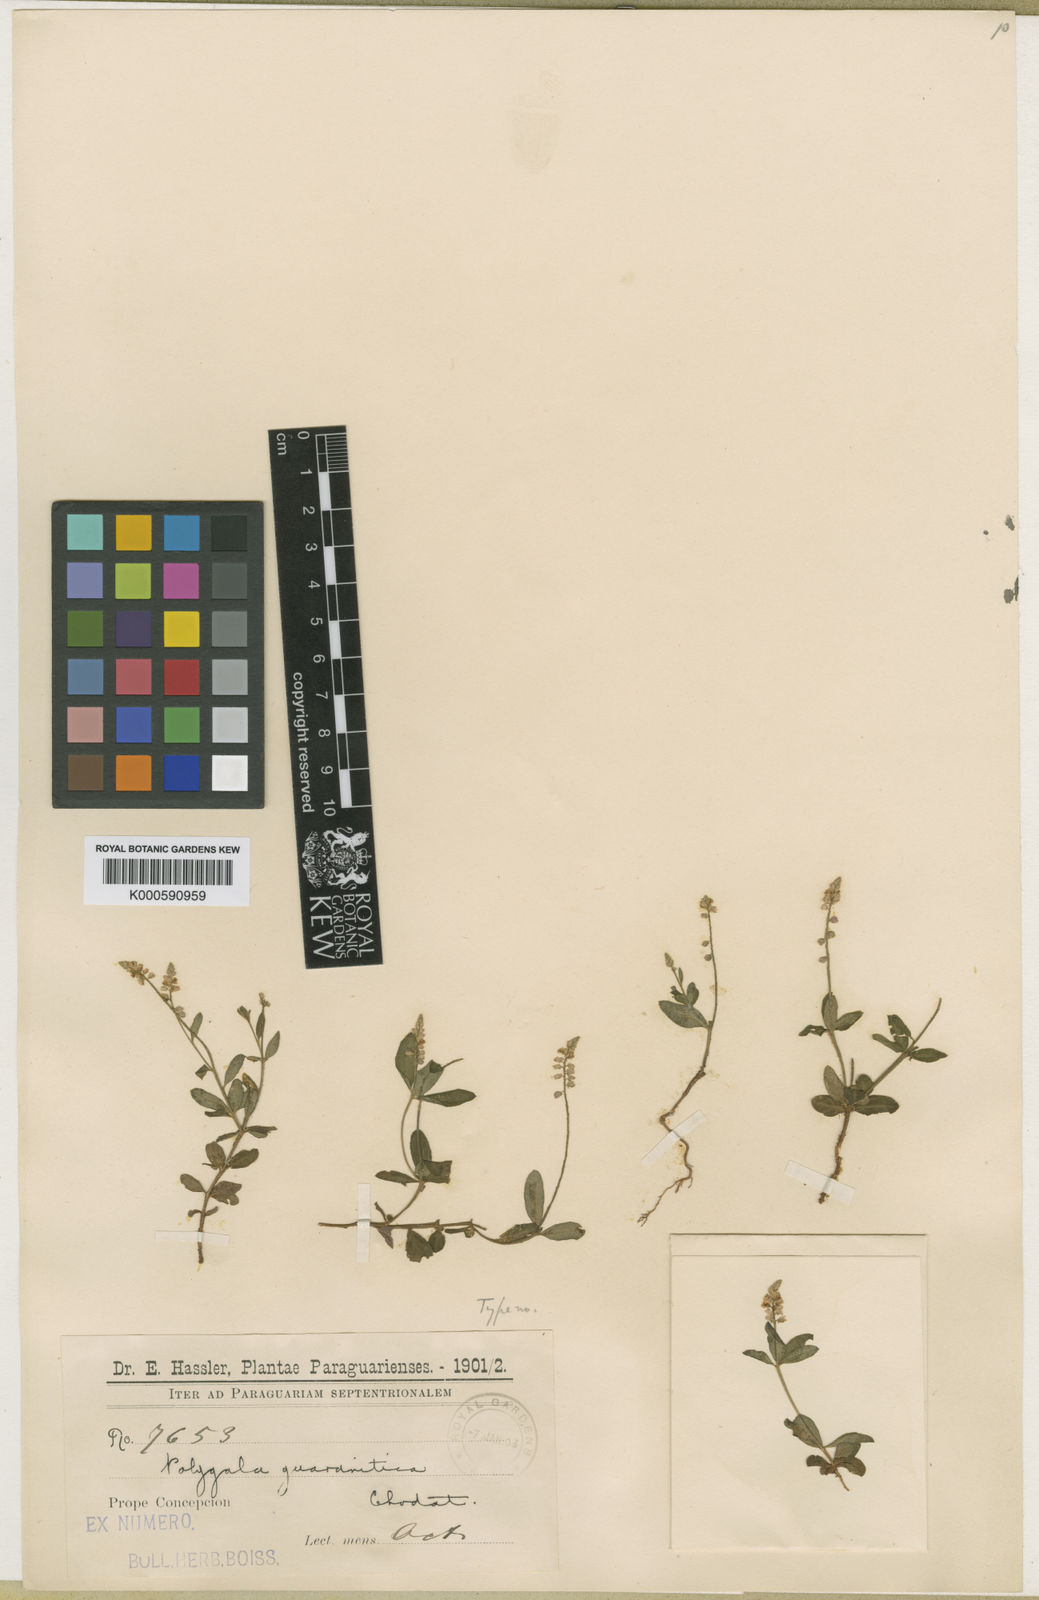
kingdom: Plantae
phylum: Tracheophyta
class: Magnoliopsida
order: Fabales
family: Polygalaceae
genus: Polygala
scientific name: Polygala guaranitica
